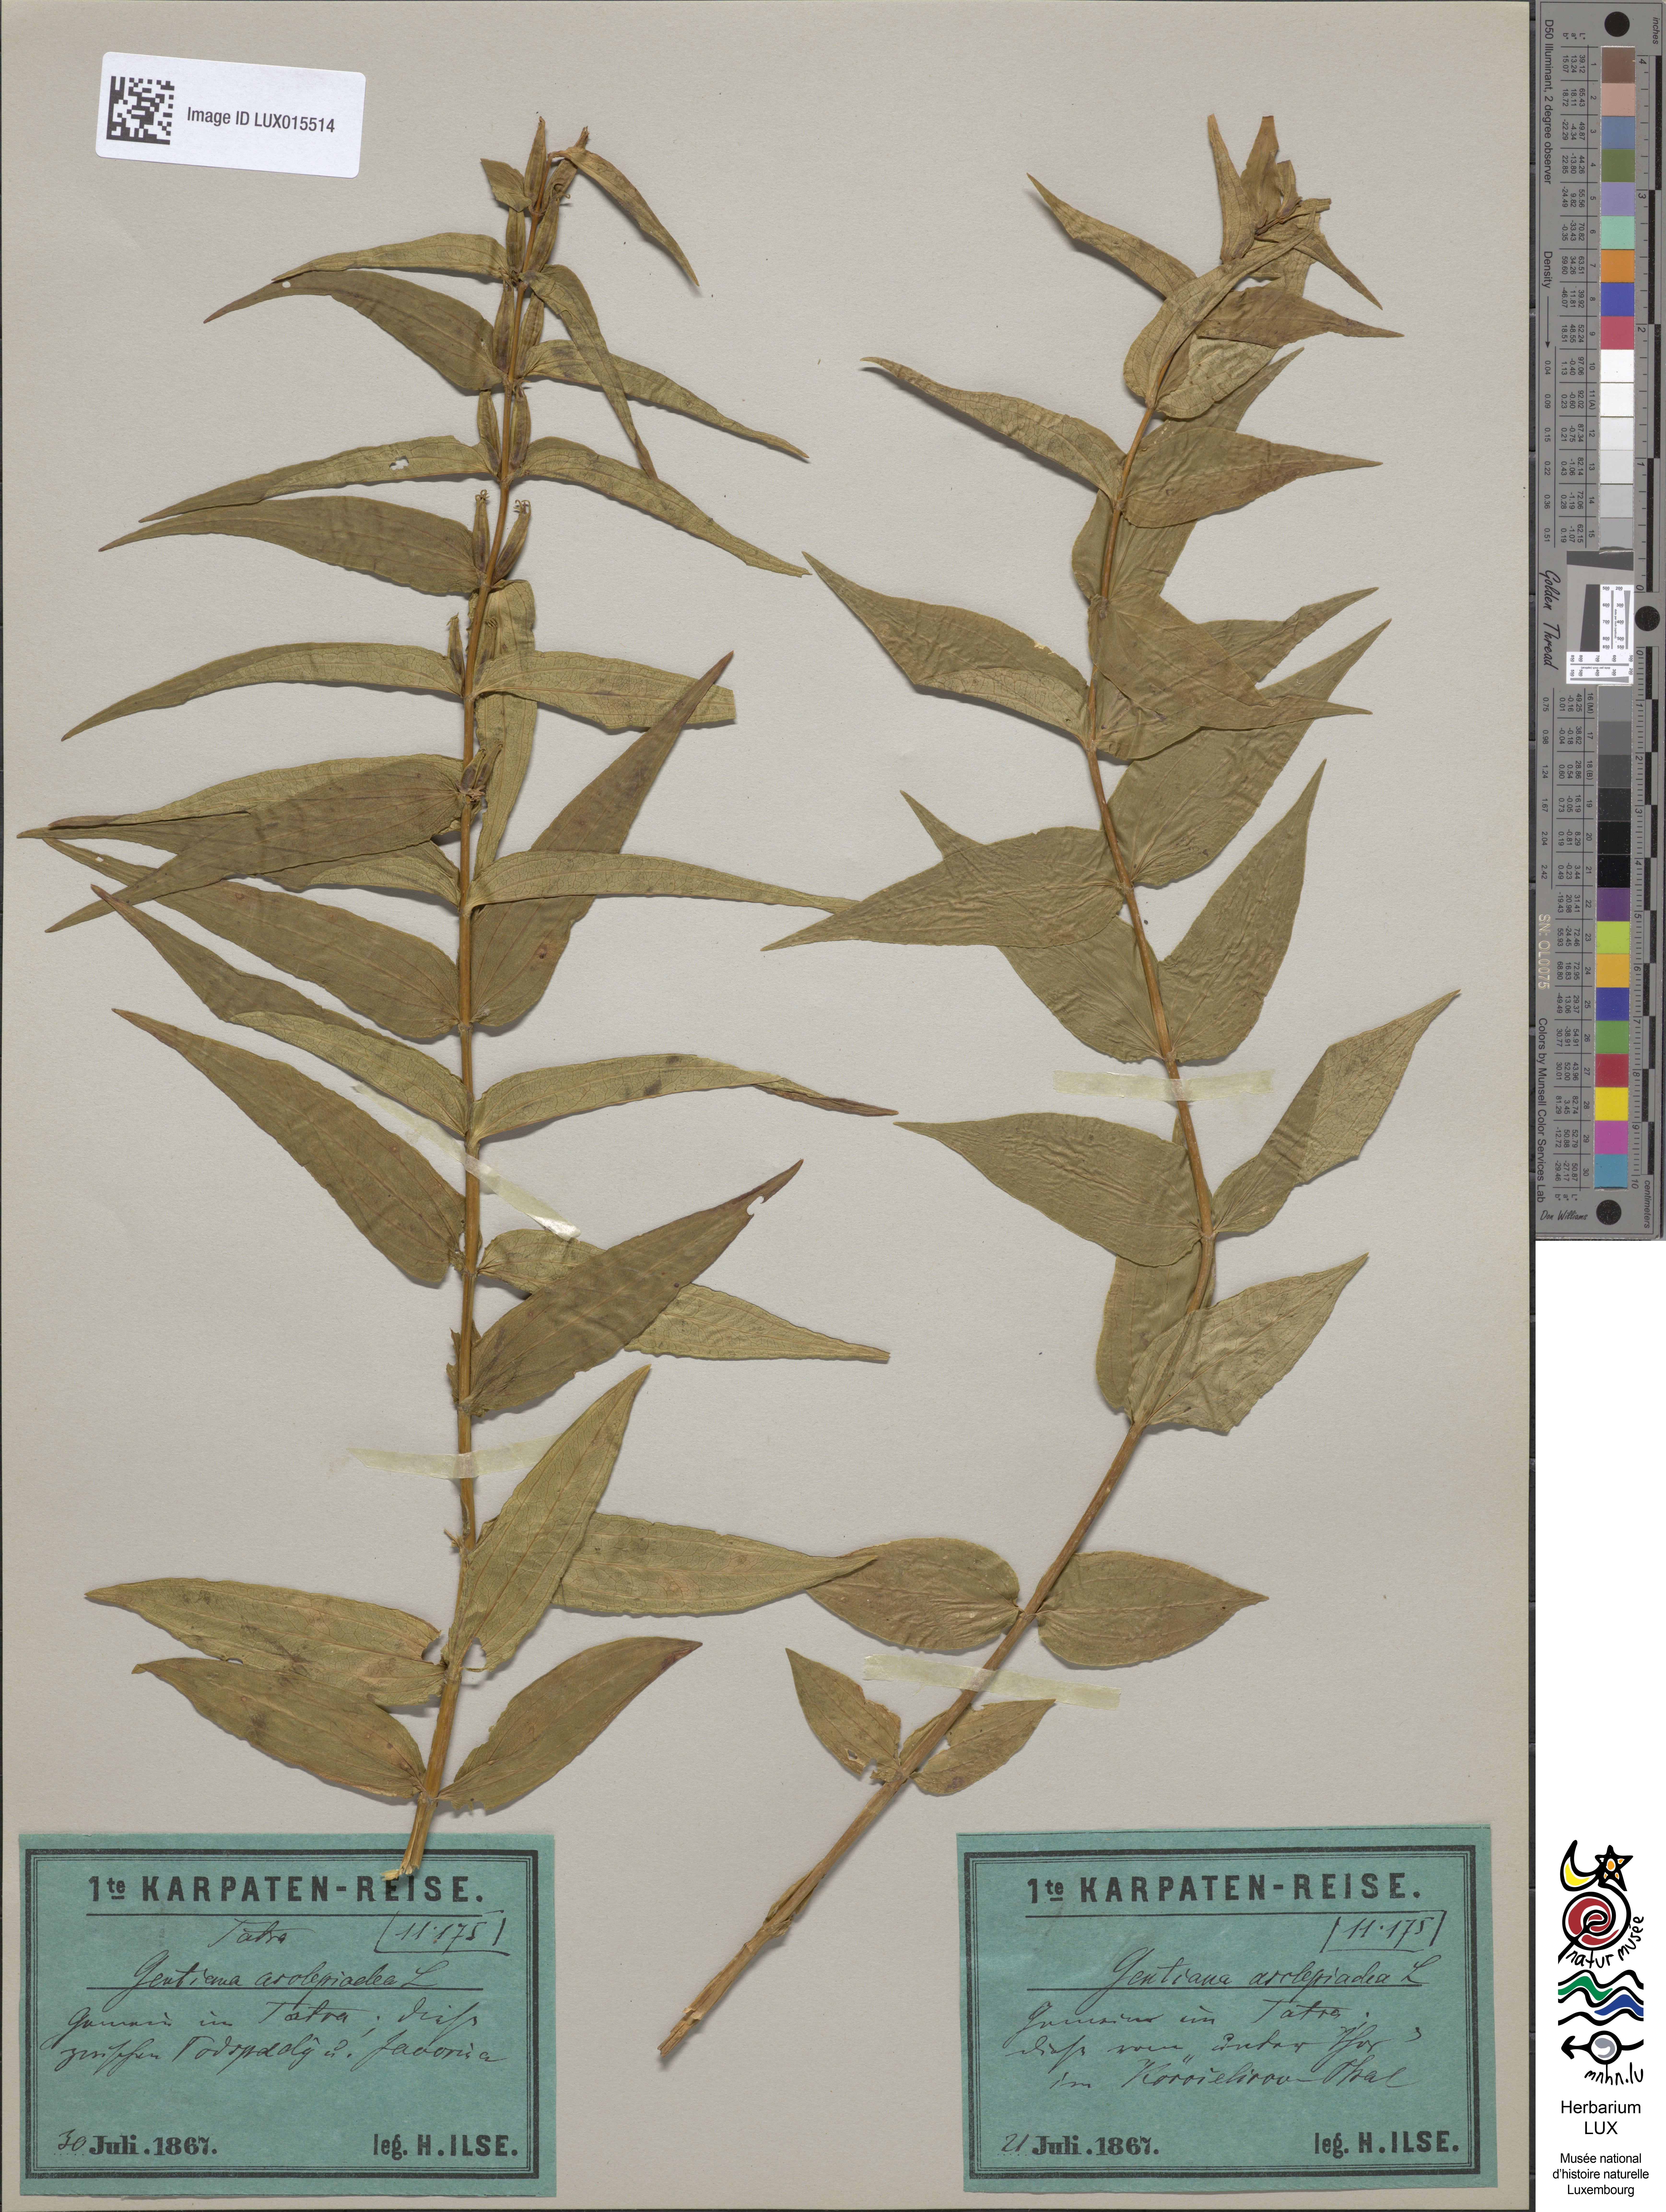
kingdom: Plantae
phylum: Tracheophyta
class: Magnoliopsida
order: Gentianales
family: Gentianaceae
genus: Gentiana
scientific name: Gentiana asclepiadea
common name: Willow gentian
